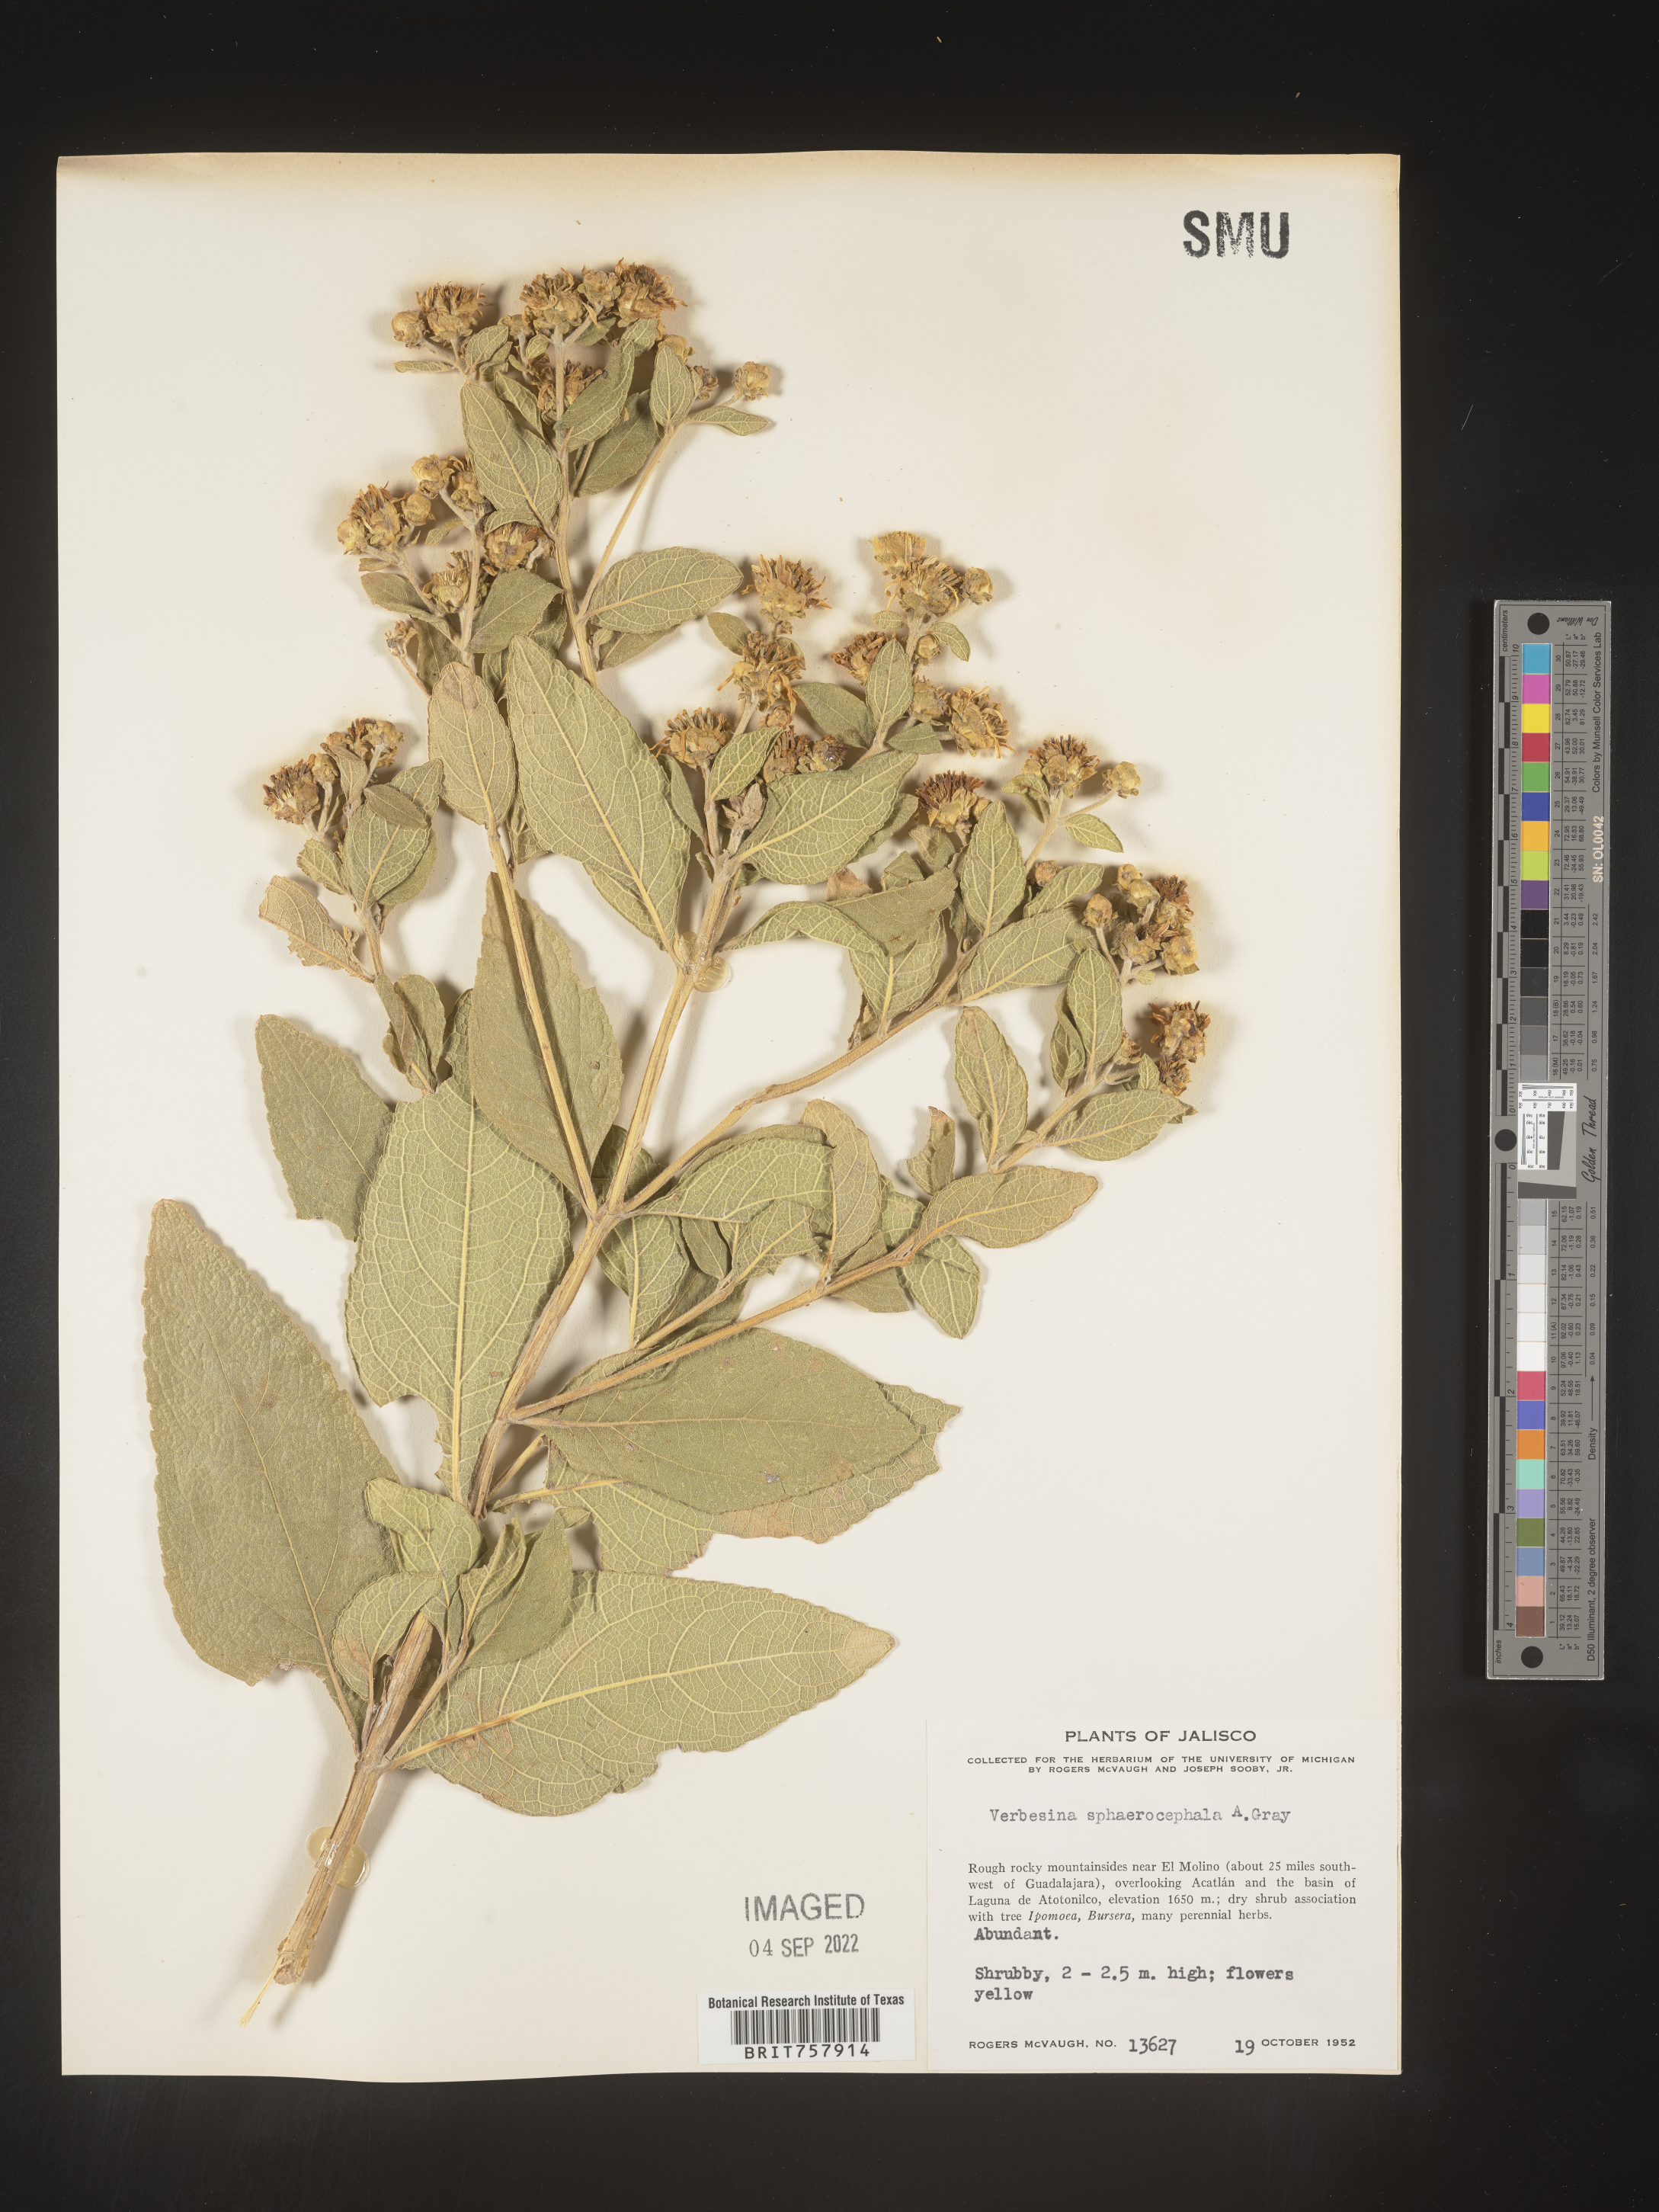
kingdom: Plantae
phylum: Tracheophyta
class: Magnoliopsida
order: Asterales
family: Asteraceae
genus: Verbesina
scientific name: Verbesina
